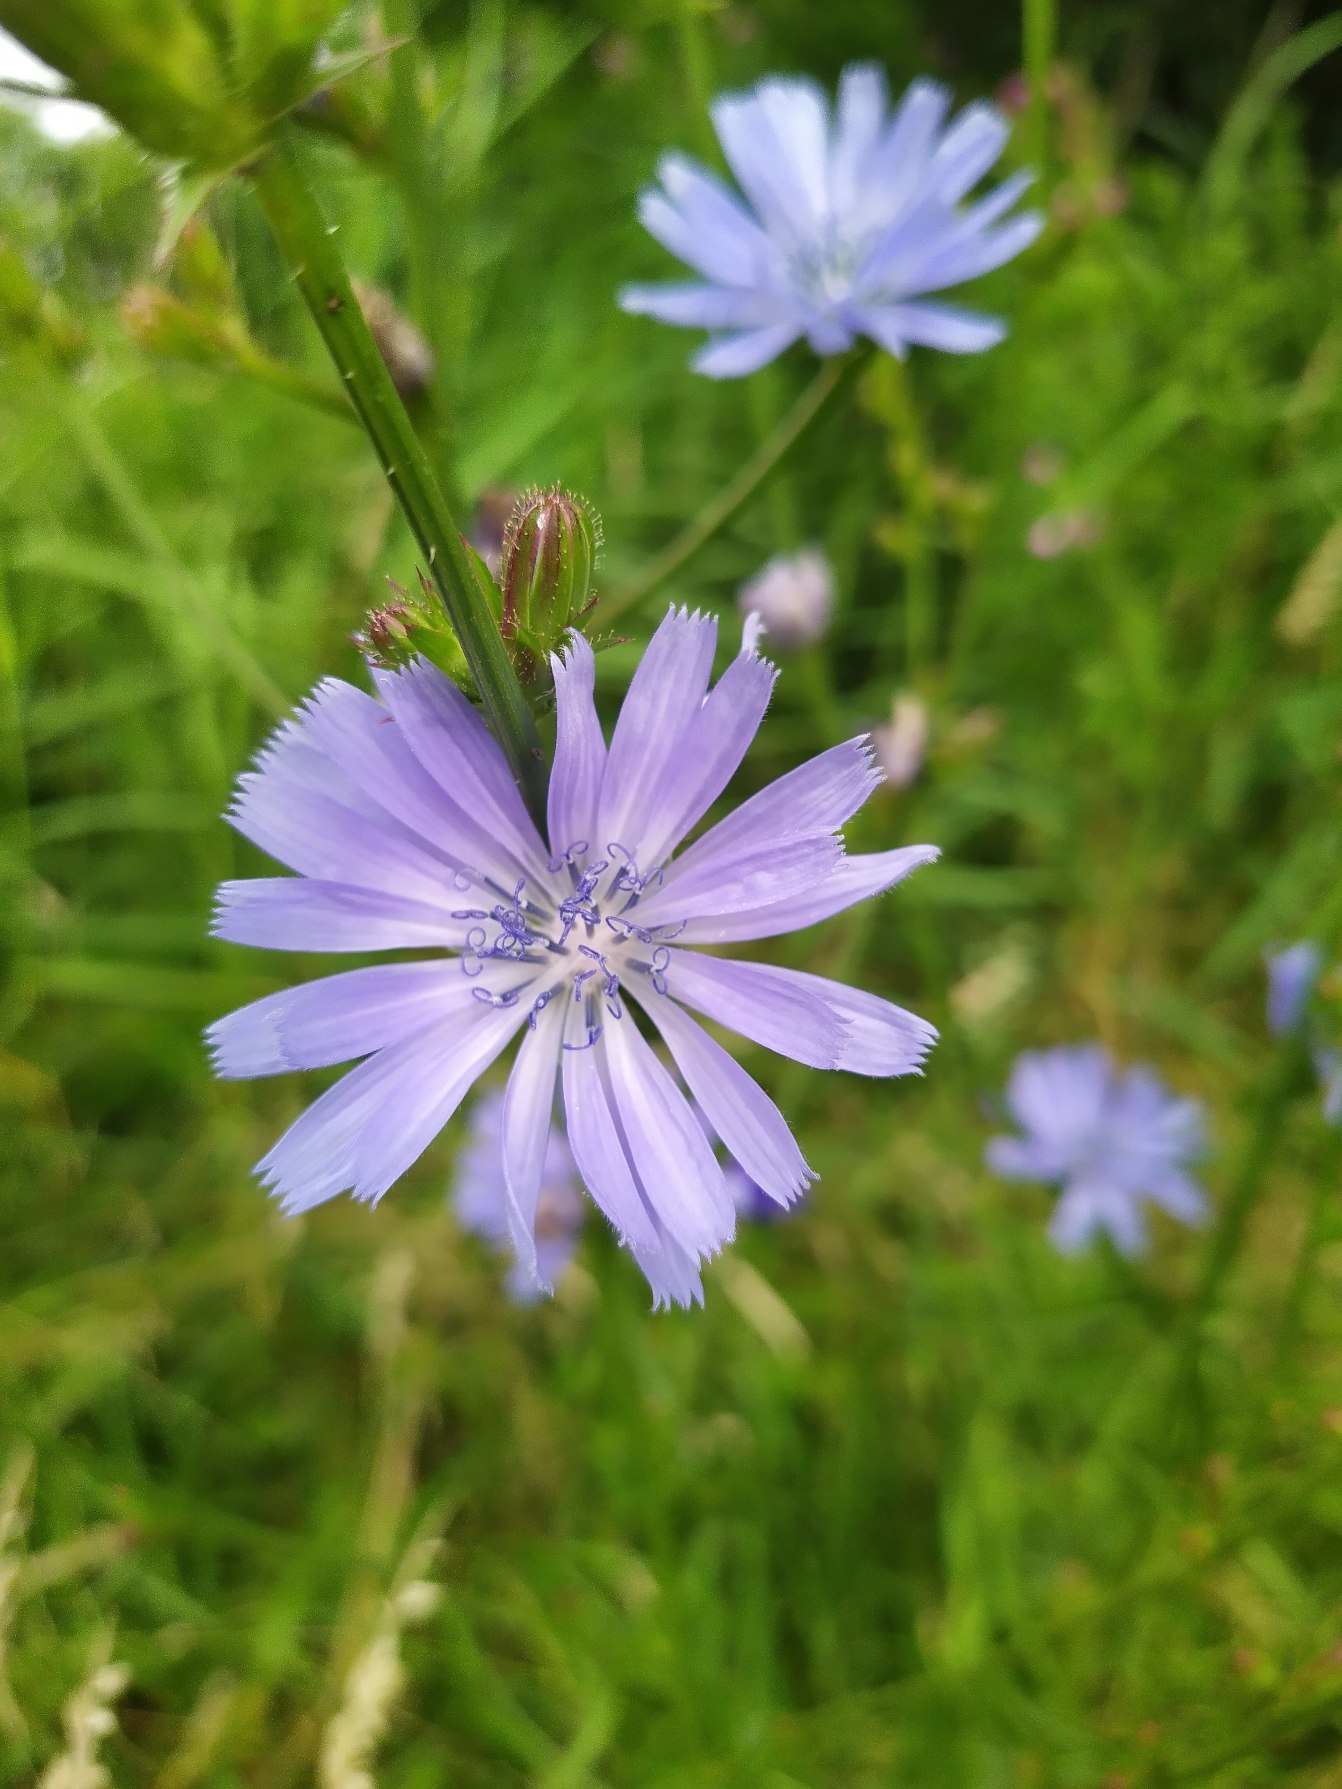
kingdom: Plantae
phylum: Tracheophyta
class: Magnoliopsida
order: Asterales
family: Asteraceae
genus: Cichorium
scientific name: Cichorium intybus
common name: Cikorie
